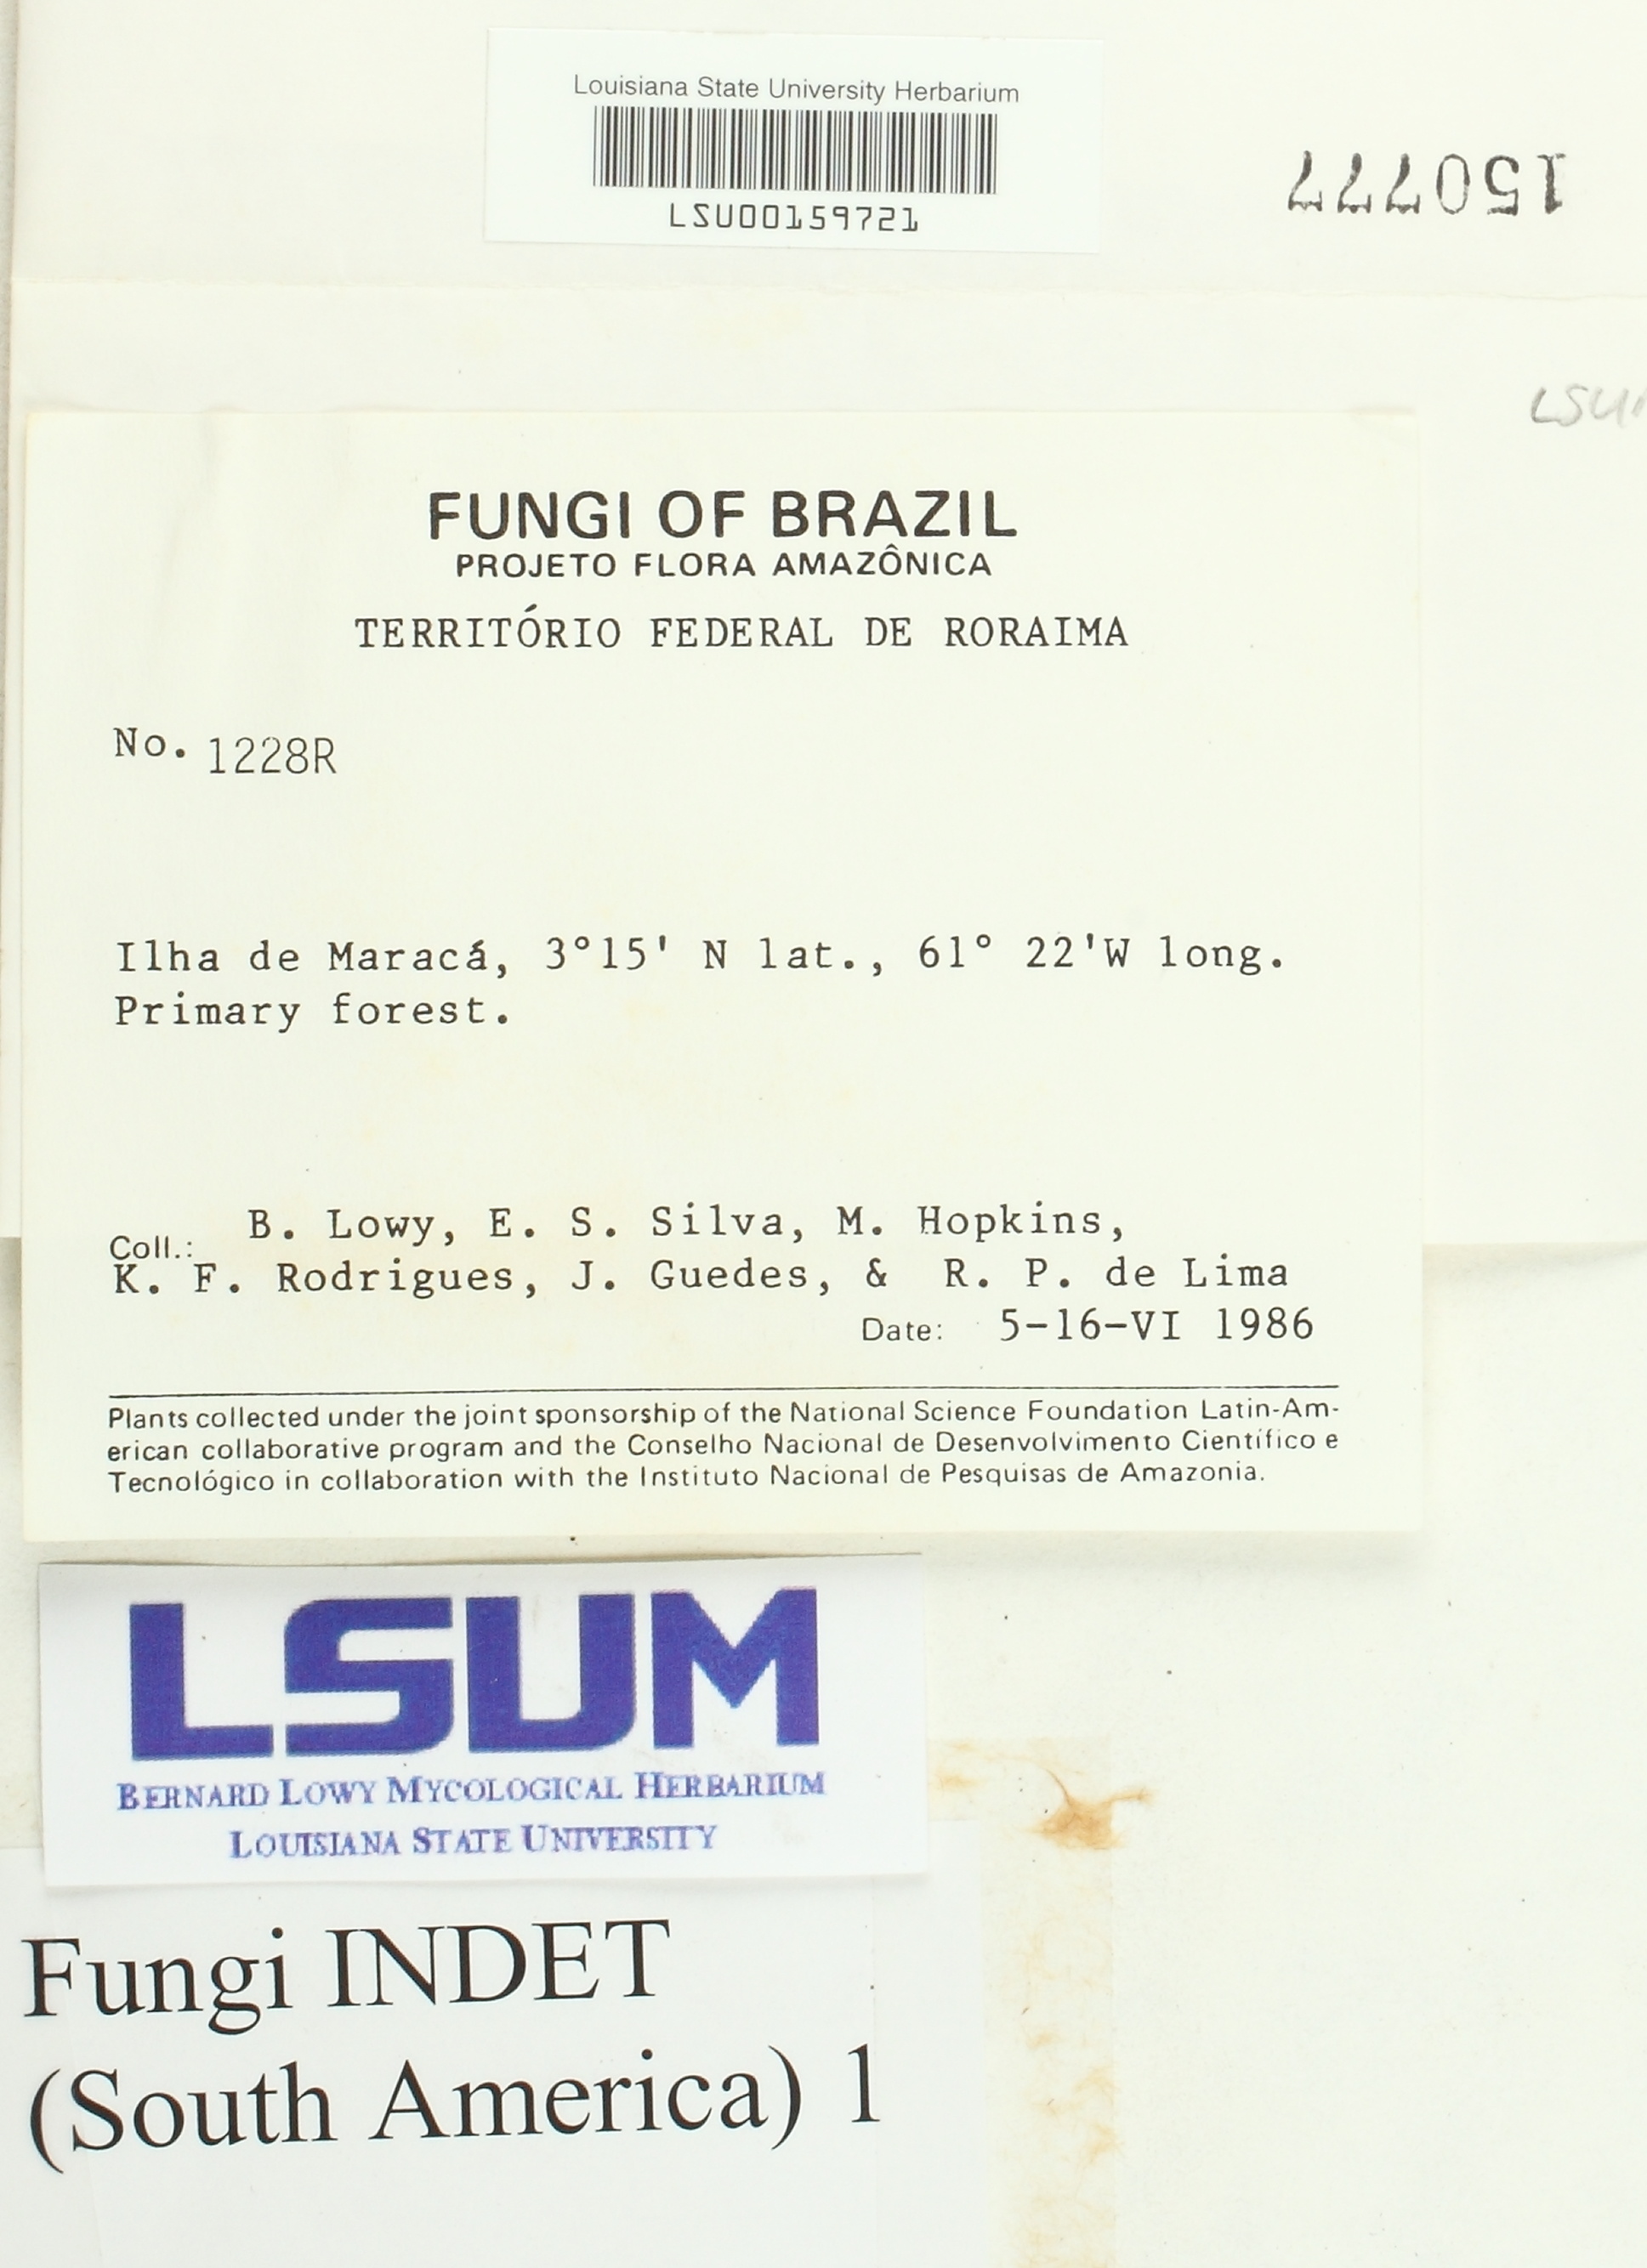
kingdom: Fungi
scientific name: Fungi
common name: Fungi
